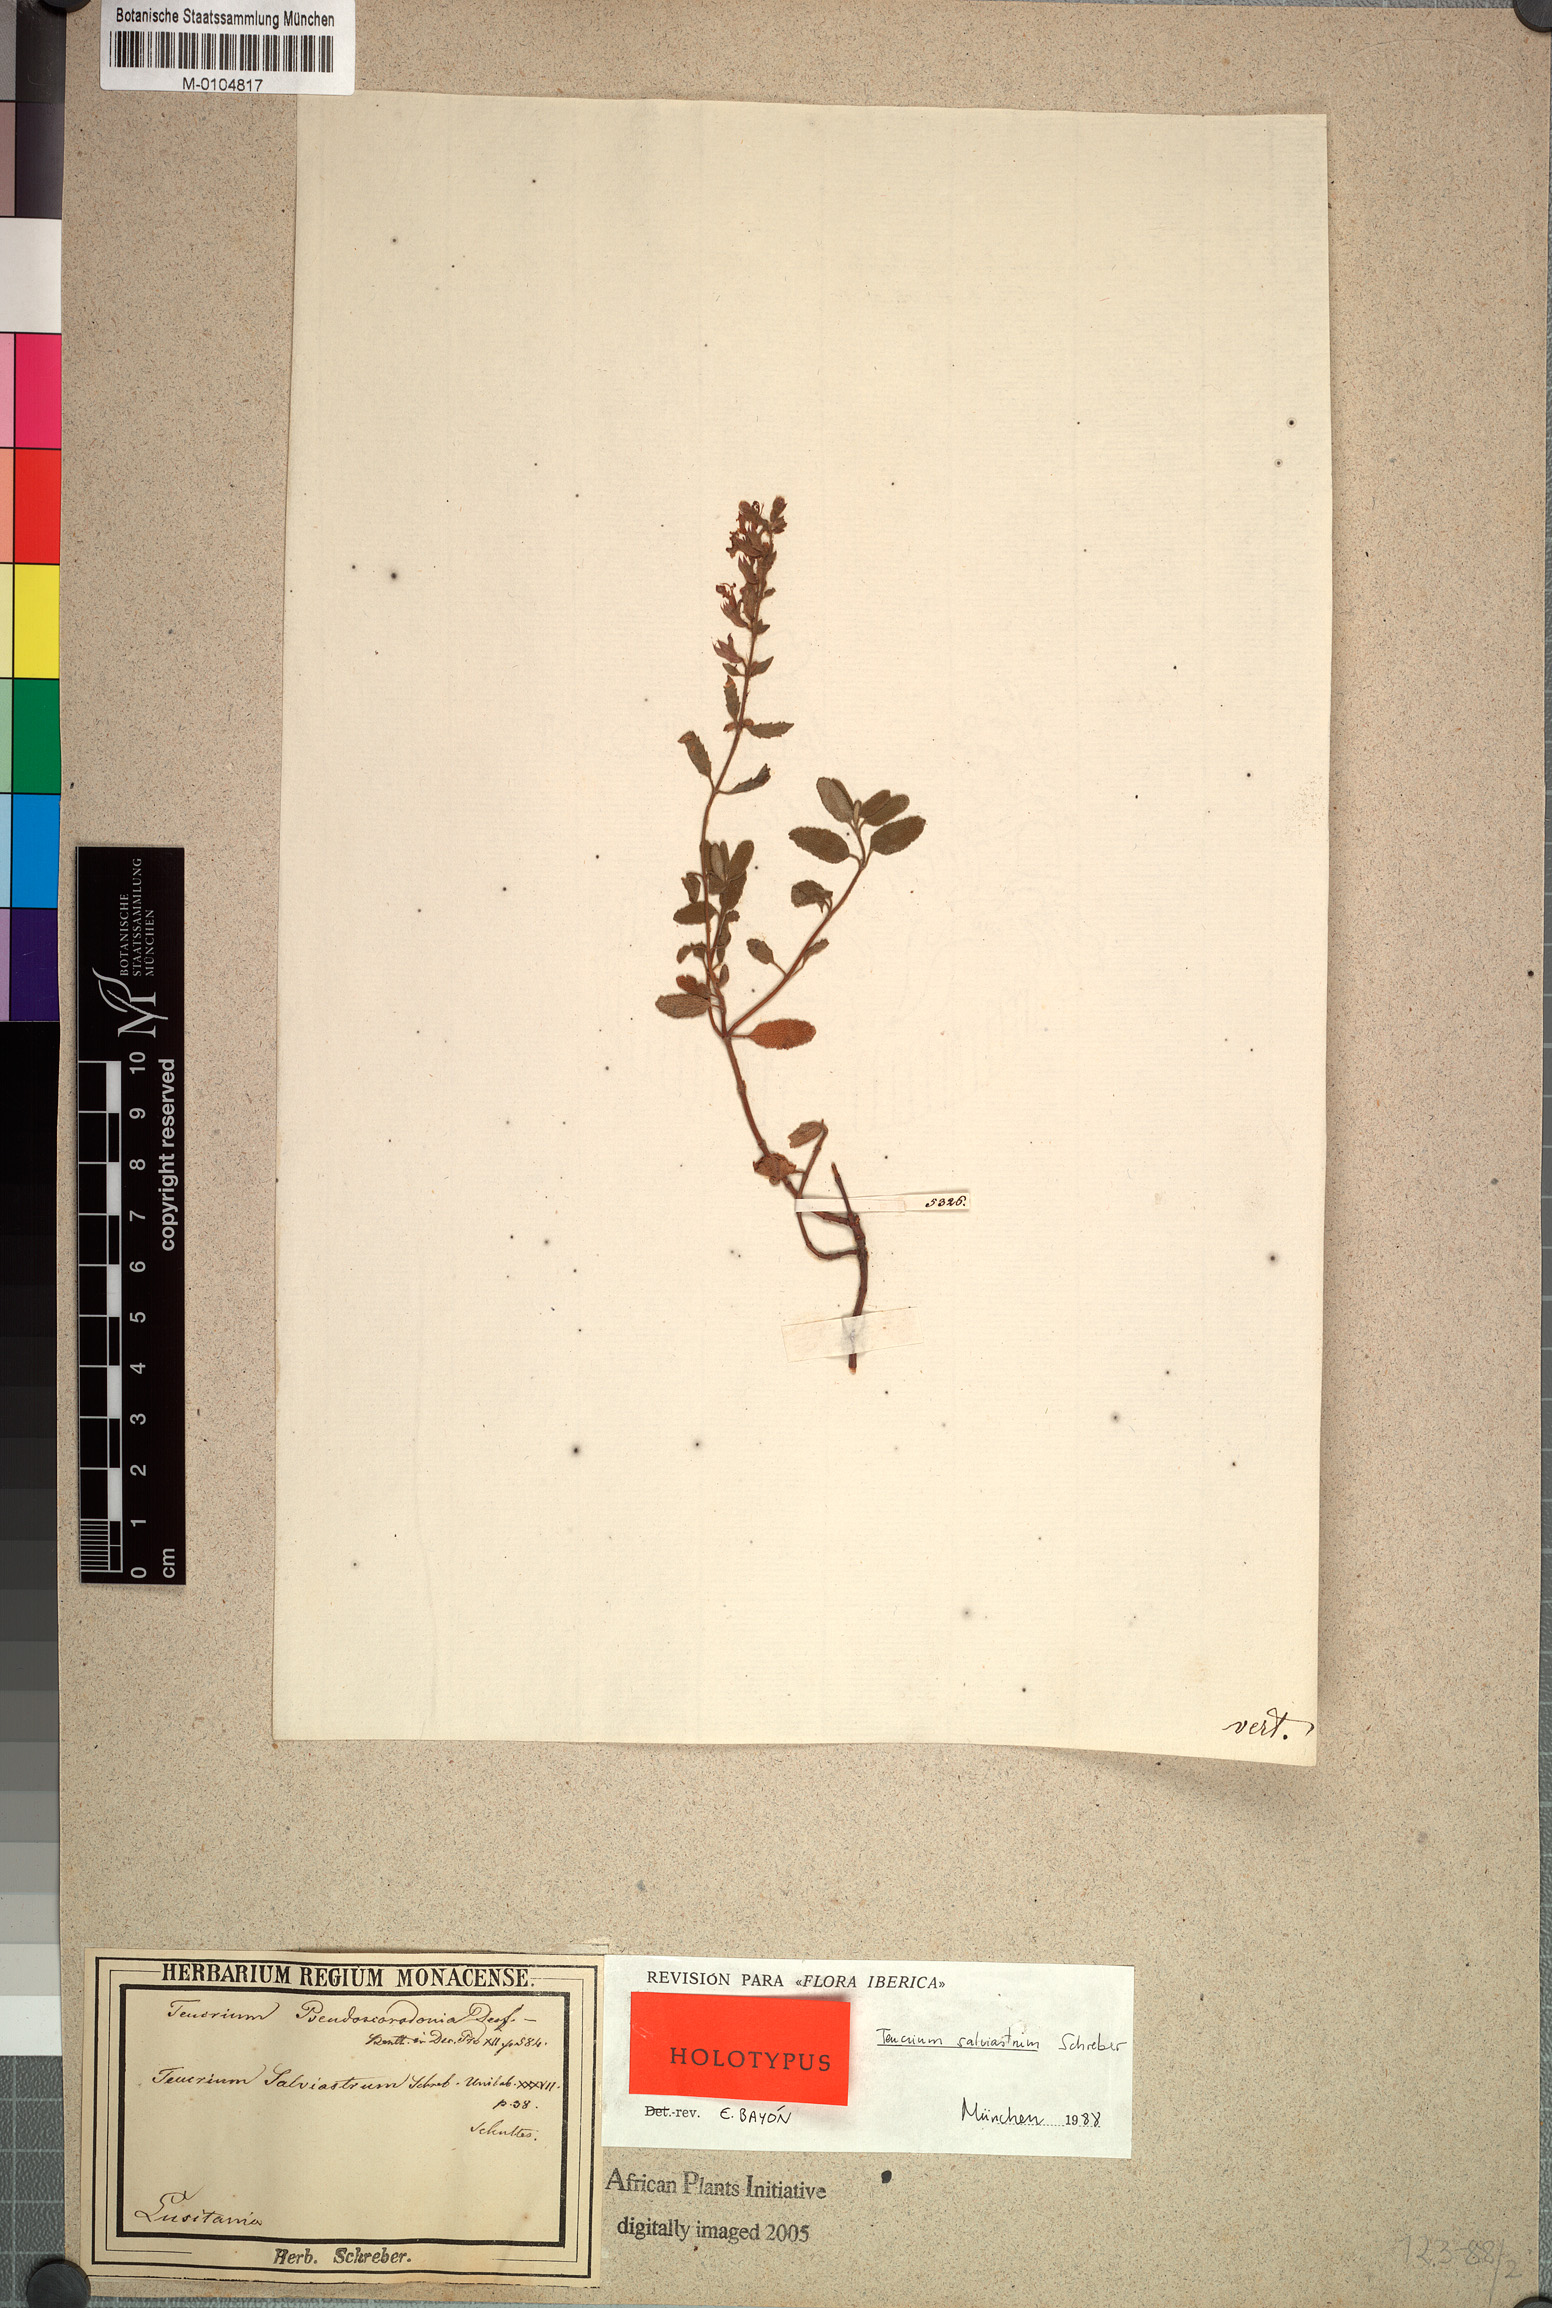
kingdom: Plantae
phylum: Tracheophyta
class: Magnoliopsida
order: Lamiales
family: Lamiaceae
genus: Teucrium
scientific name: Teucrium salviastrum
